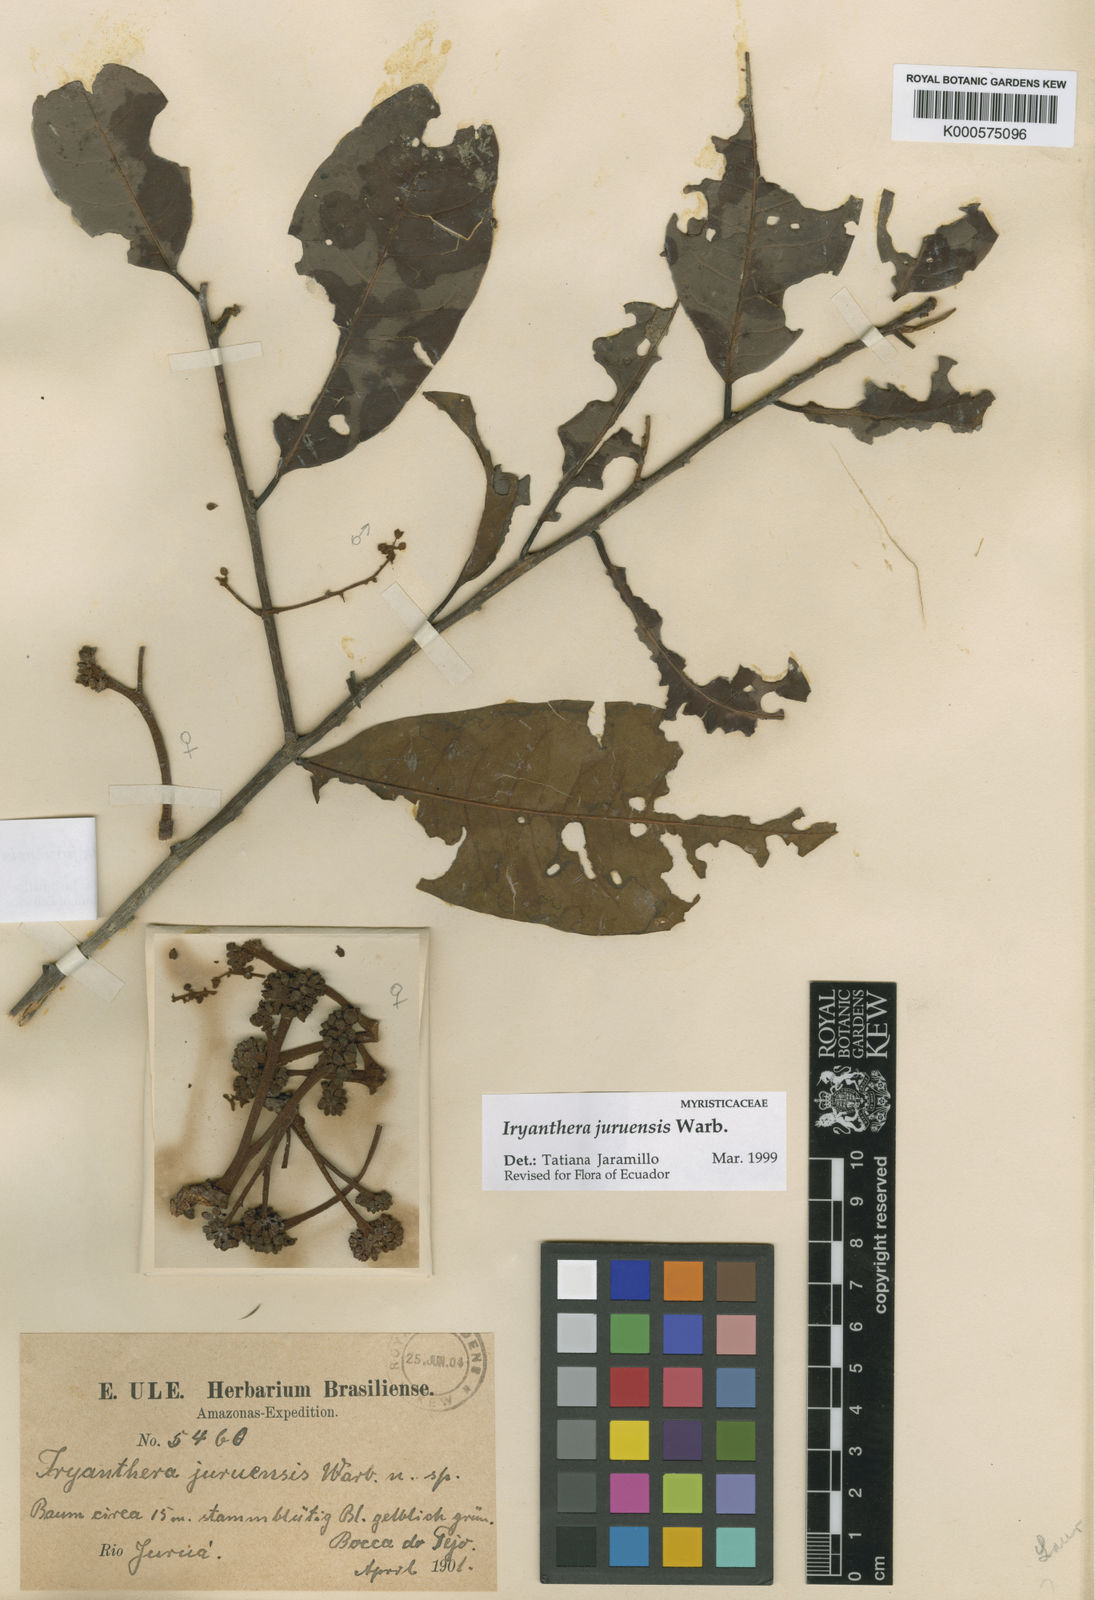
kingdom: Plantae
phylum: Tracheophyta
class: Magnoliopsida
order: Magnoliales
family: Myristicaceae
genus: Iryanthera
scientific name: Iryanthera juruensis
